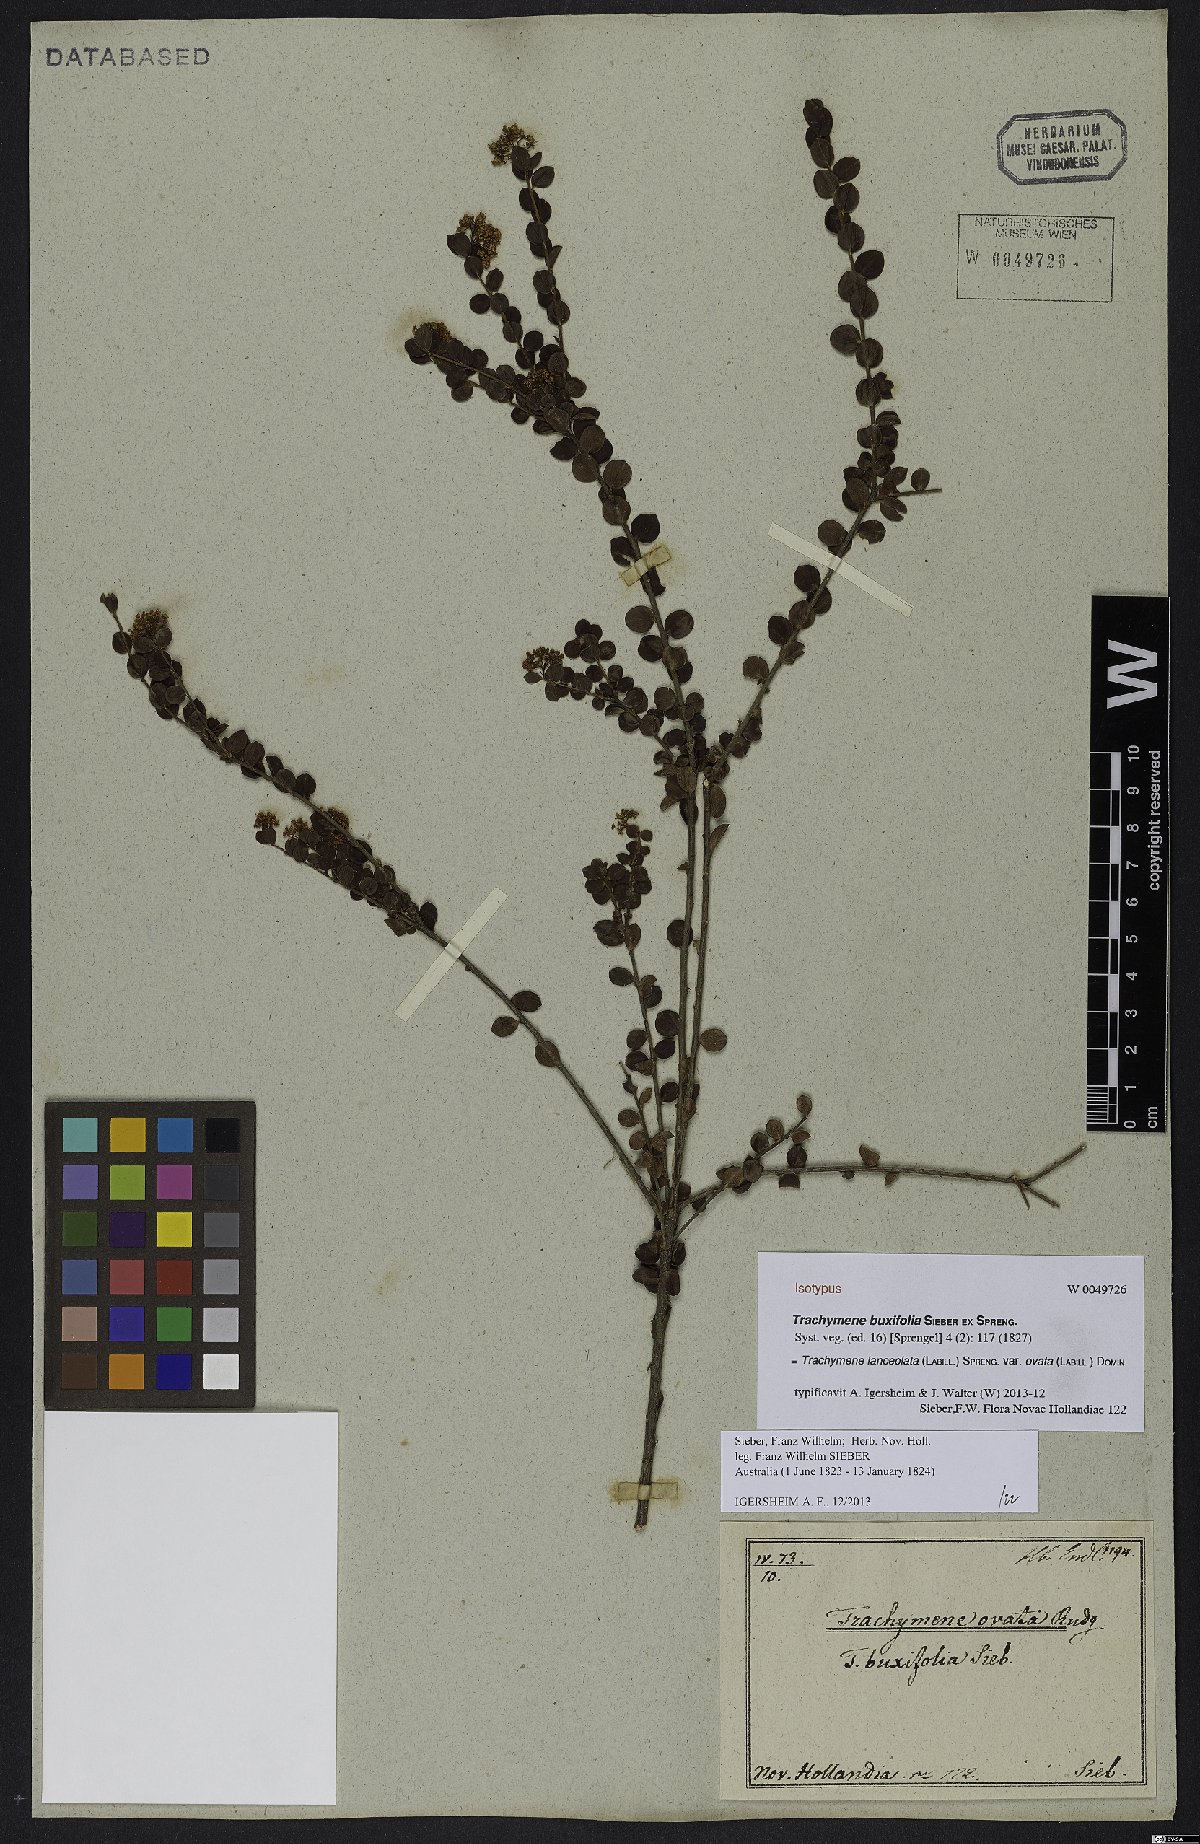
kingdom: Plantae
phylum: Tracheophyta
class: Magnoliopsida
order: Apiales
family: Apiaceae
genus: Platysace
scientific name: Platysace lanceolata
